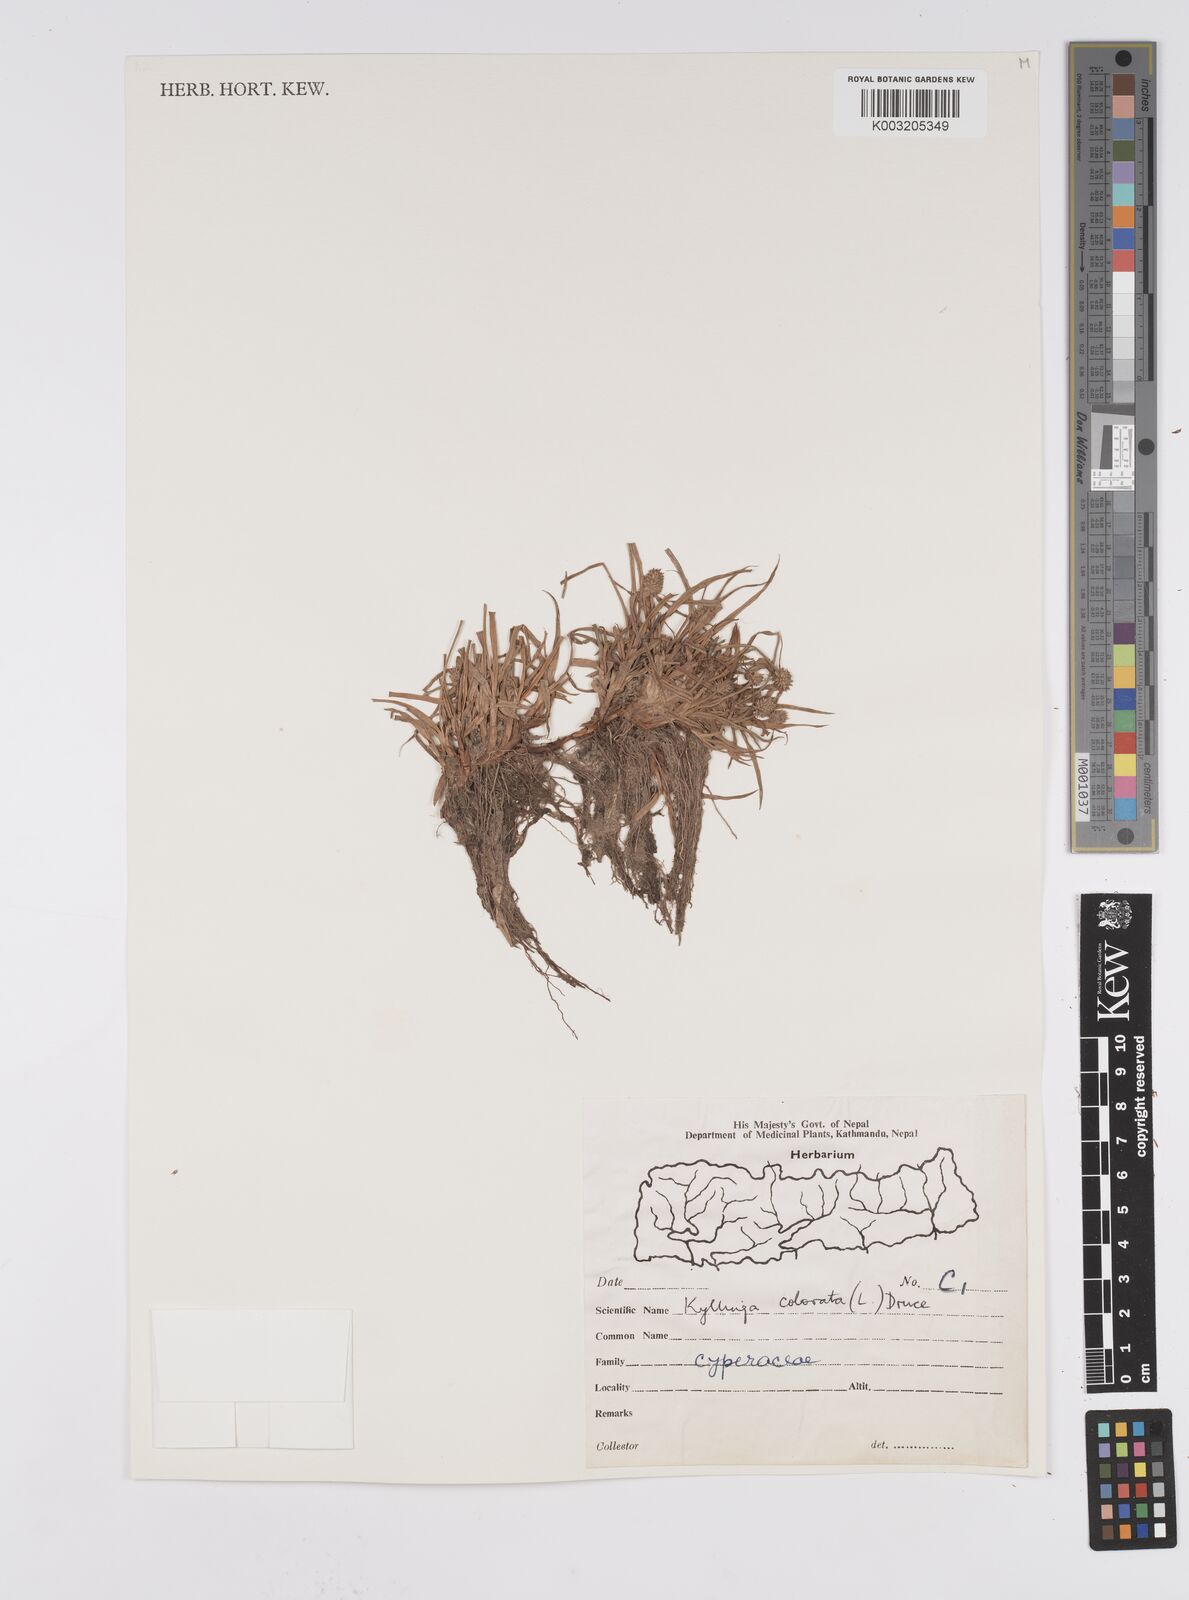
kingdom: Plantae
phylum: Tracheophyta
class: Liliopsida
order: Poales
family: Cyperaceae
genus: Cyperus
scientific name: Cyperus brevifolius
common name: Globe kyllinga
